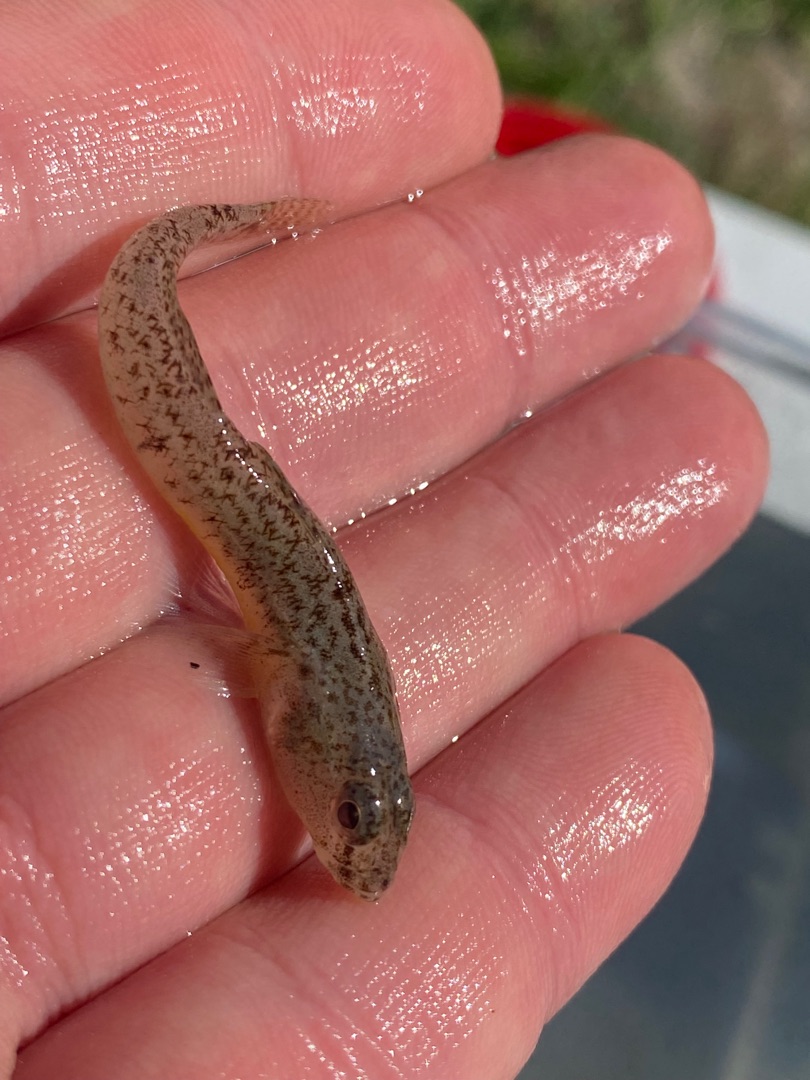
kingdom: Animalia
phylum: Chordata
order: Perciformes
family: Gobiidae
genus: Pomatoschistus
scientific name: Pomatoschistus minutus
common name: Sandkutling
